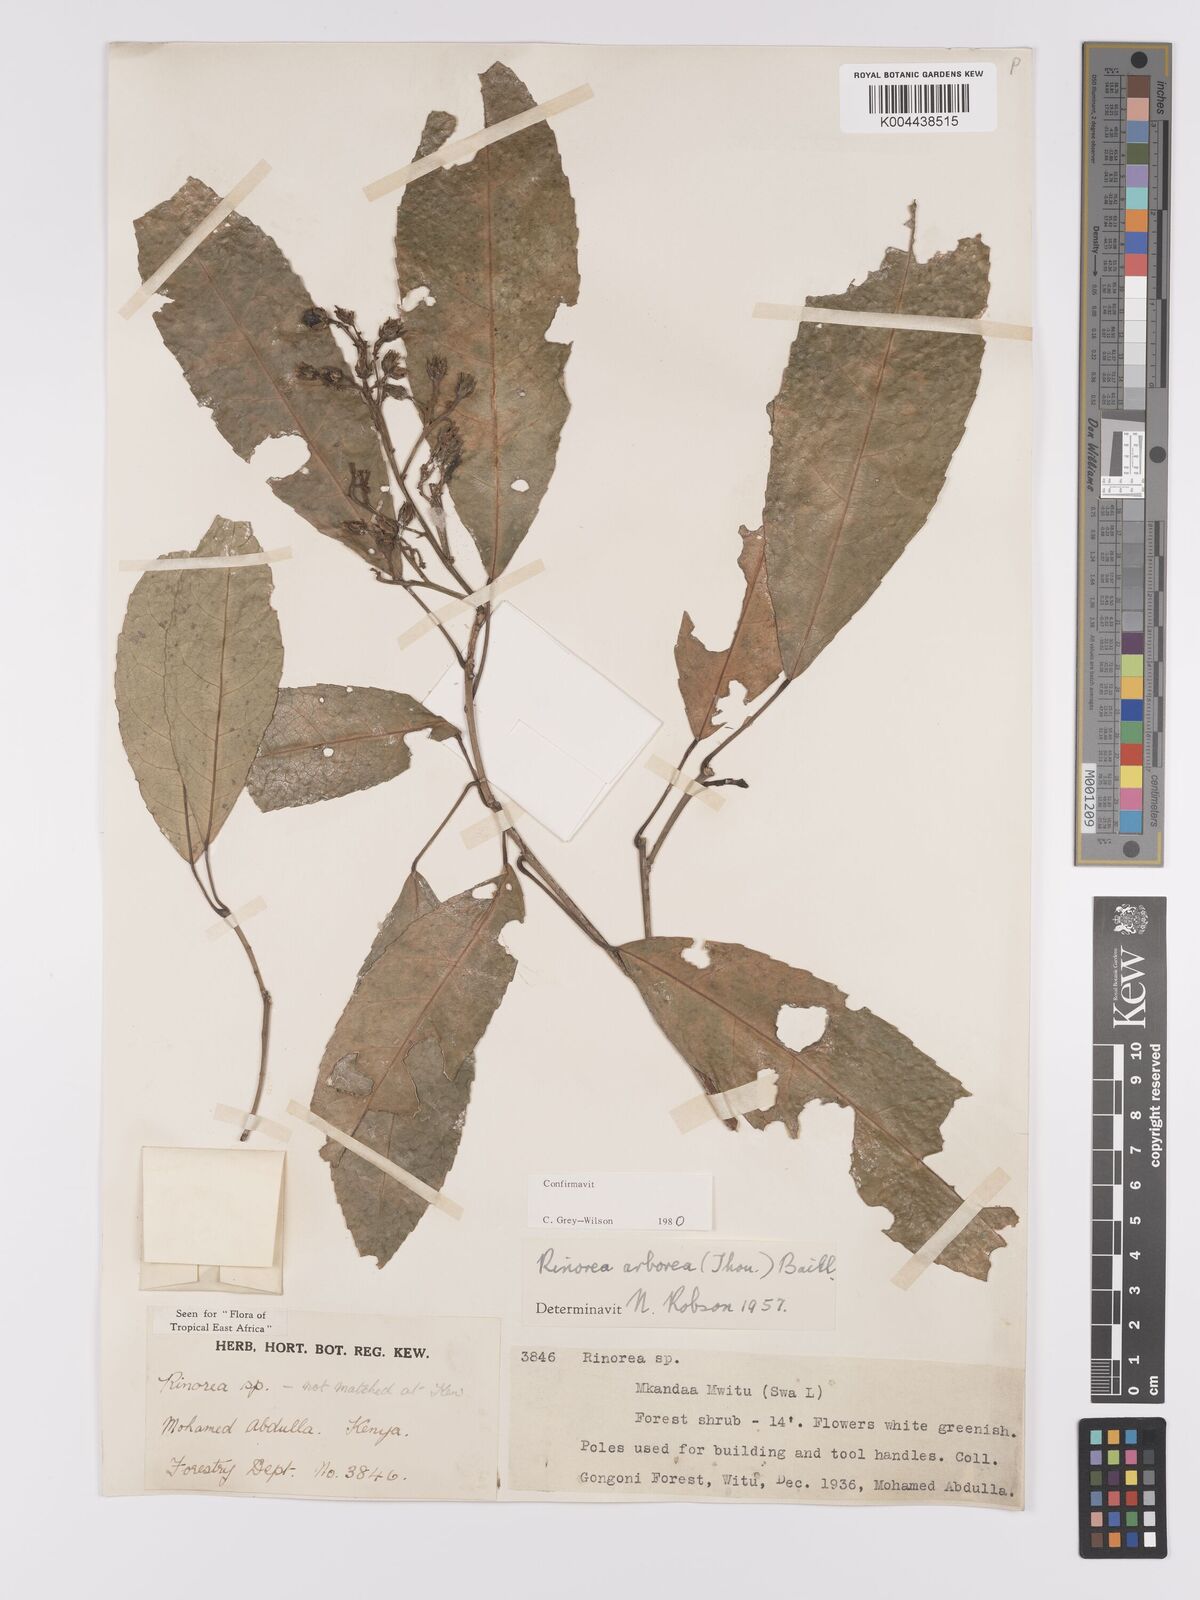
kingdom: Plantae
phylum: Tracheophyta
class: Magnoliopsida
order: Malpighiales
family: Violaceae
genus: Rinorea
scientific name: Rinorea arborea
